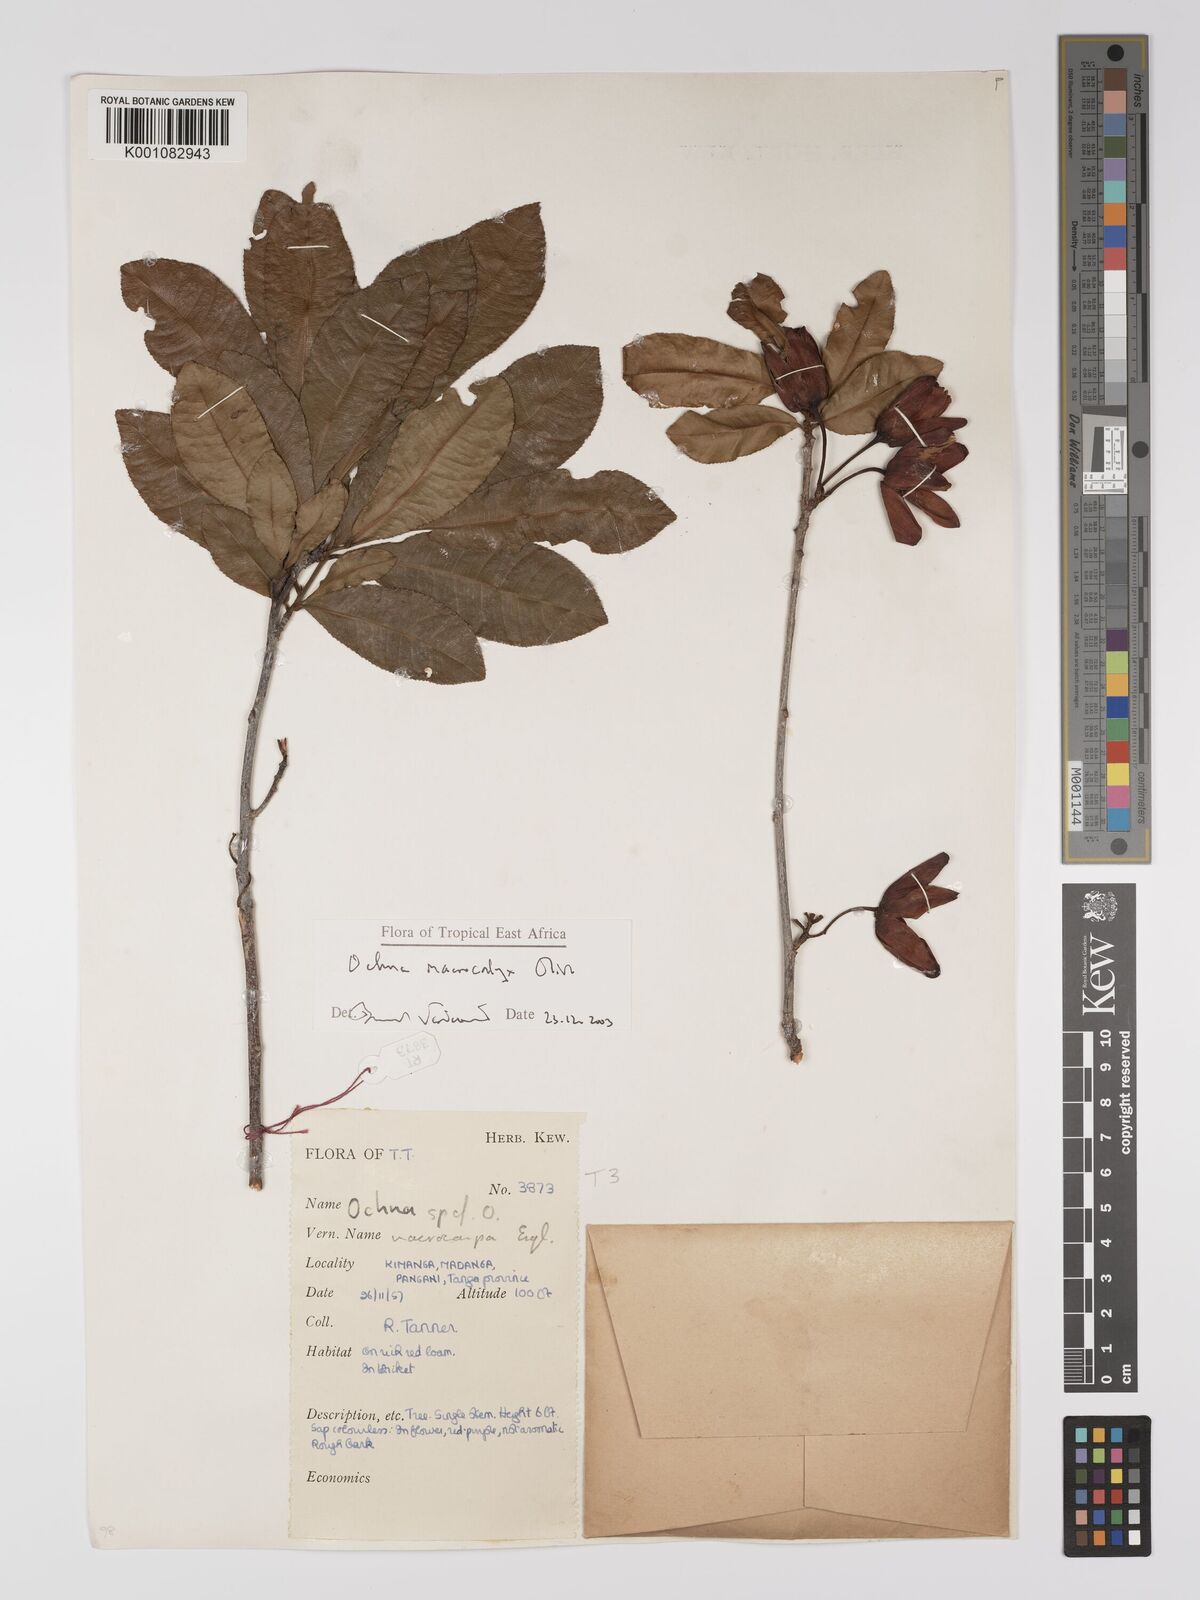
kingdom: Plantae
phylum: Tracheophyta
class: Magnoliopsida
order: Malpighiales
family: Ochnaceae
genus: Ochna
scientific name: Ochna macrocalyx
